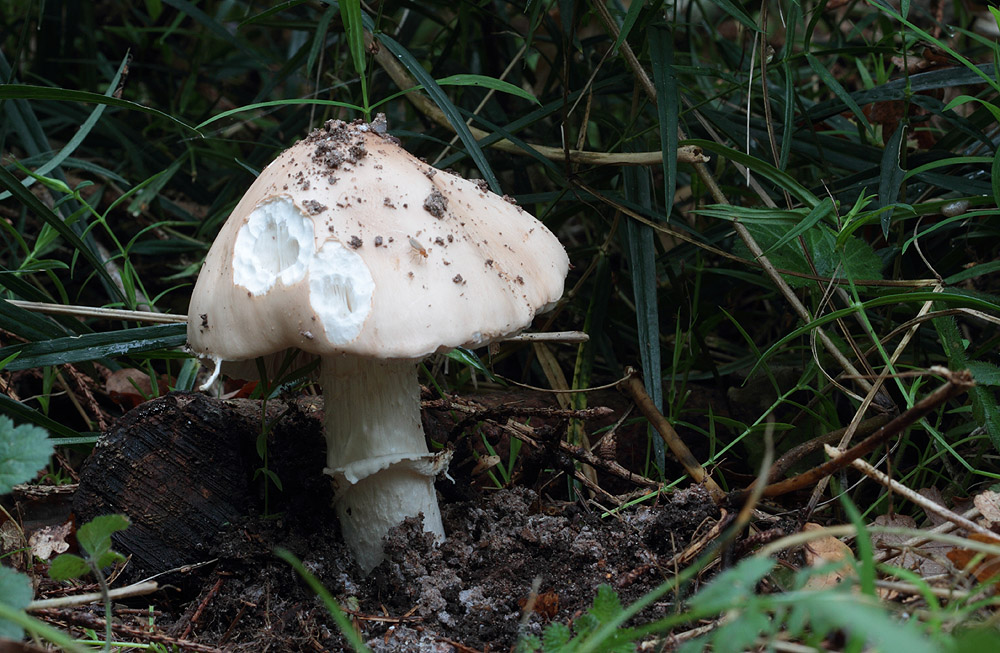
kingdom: Fungi
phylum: Basidiomycota
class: Agaricomycetes
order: Agaricales
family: Amanitaceae
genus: Limacellopsis
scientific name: Limacellopsis guttata
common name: tåre-snekkehat
